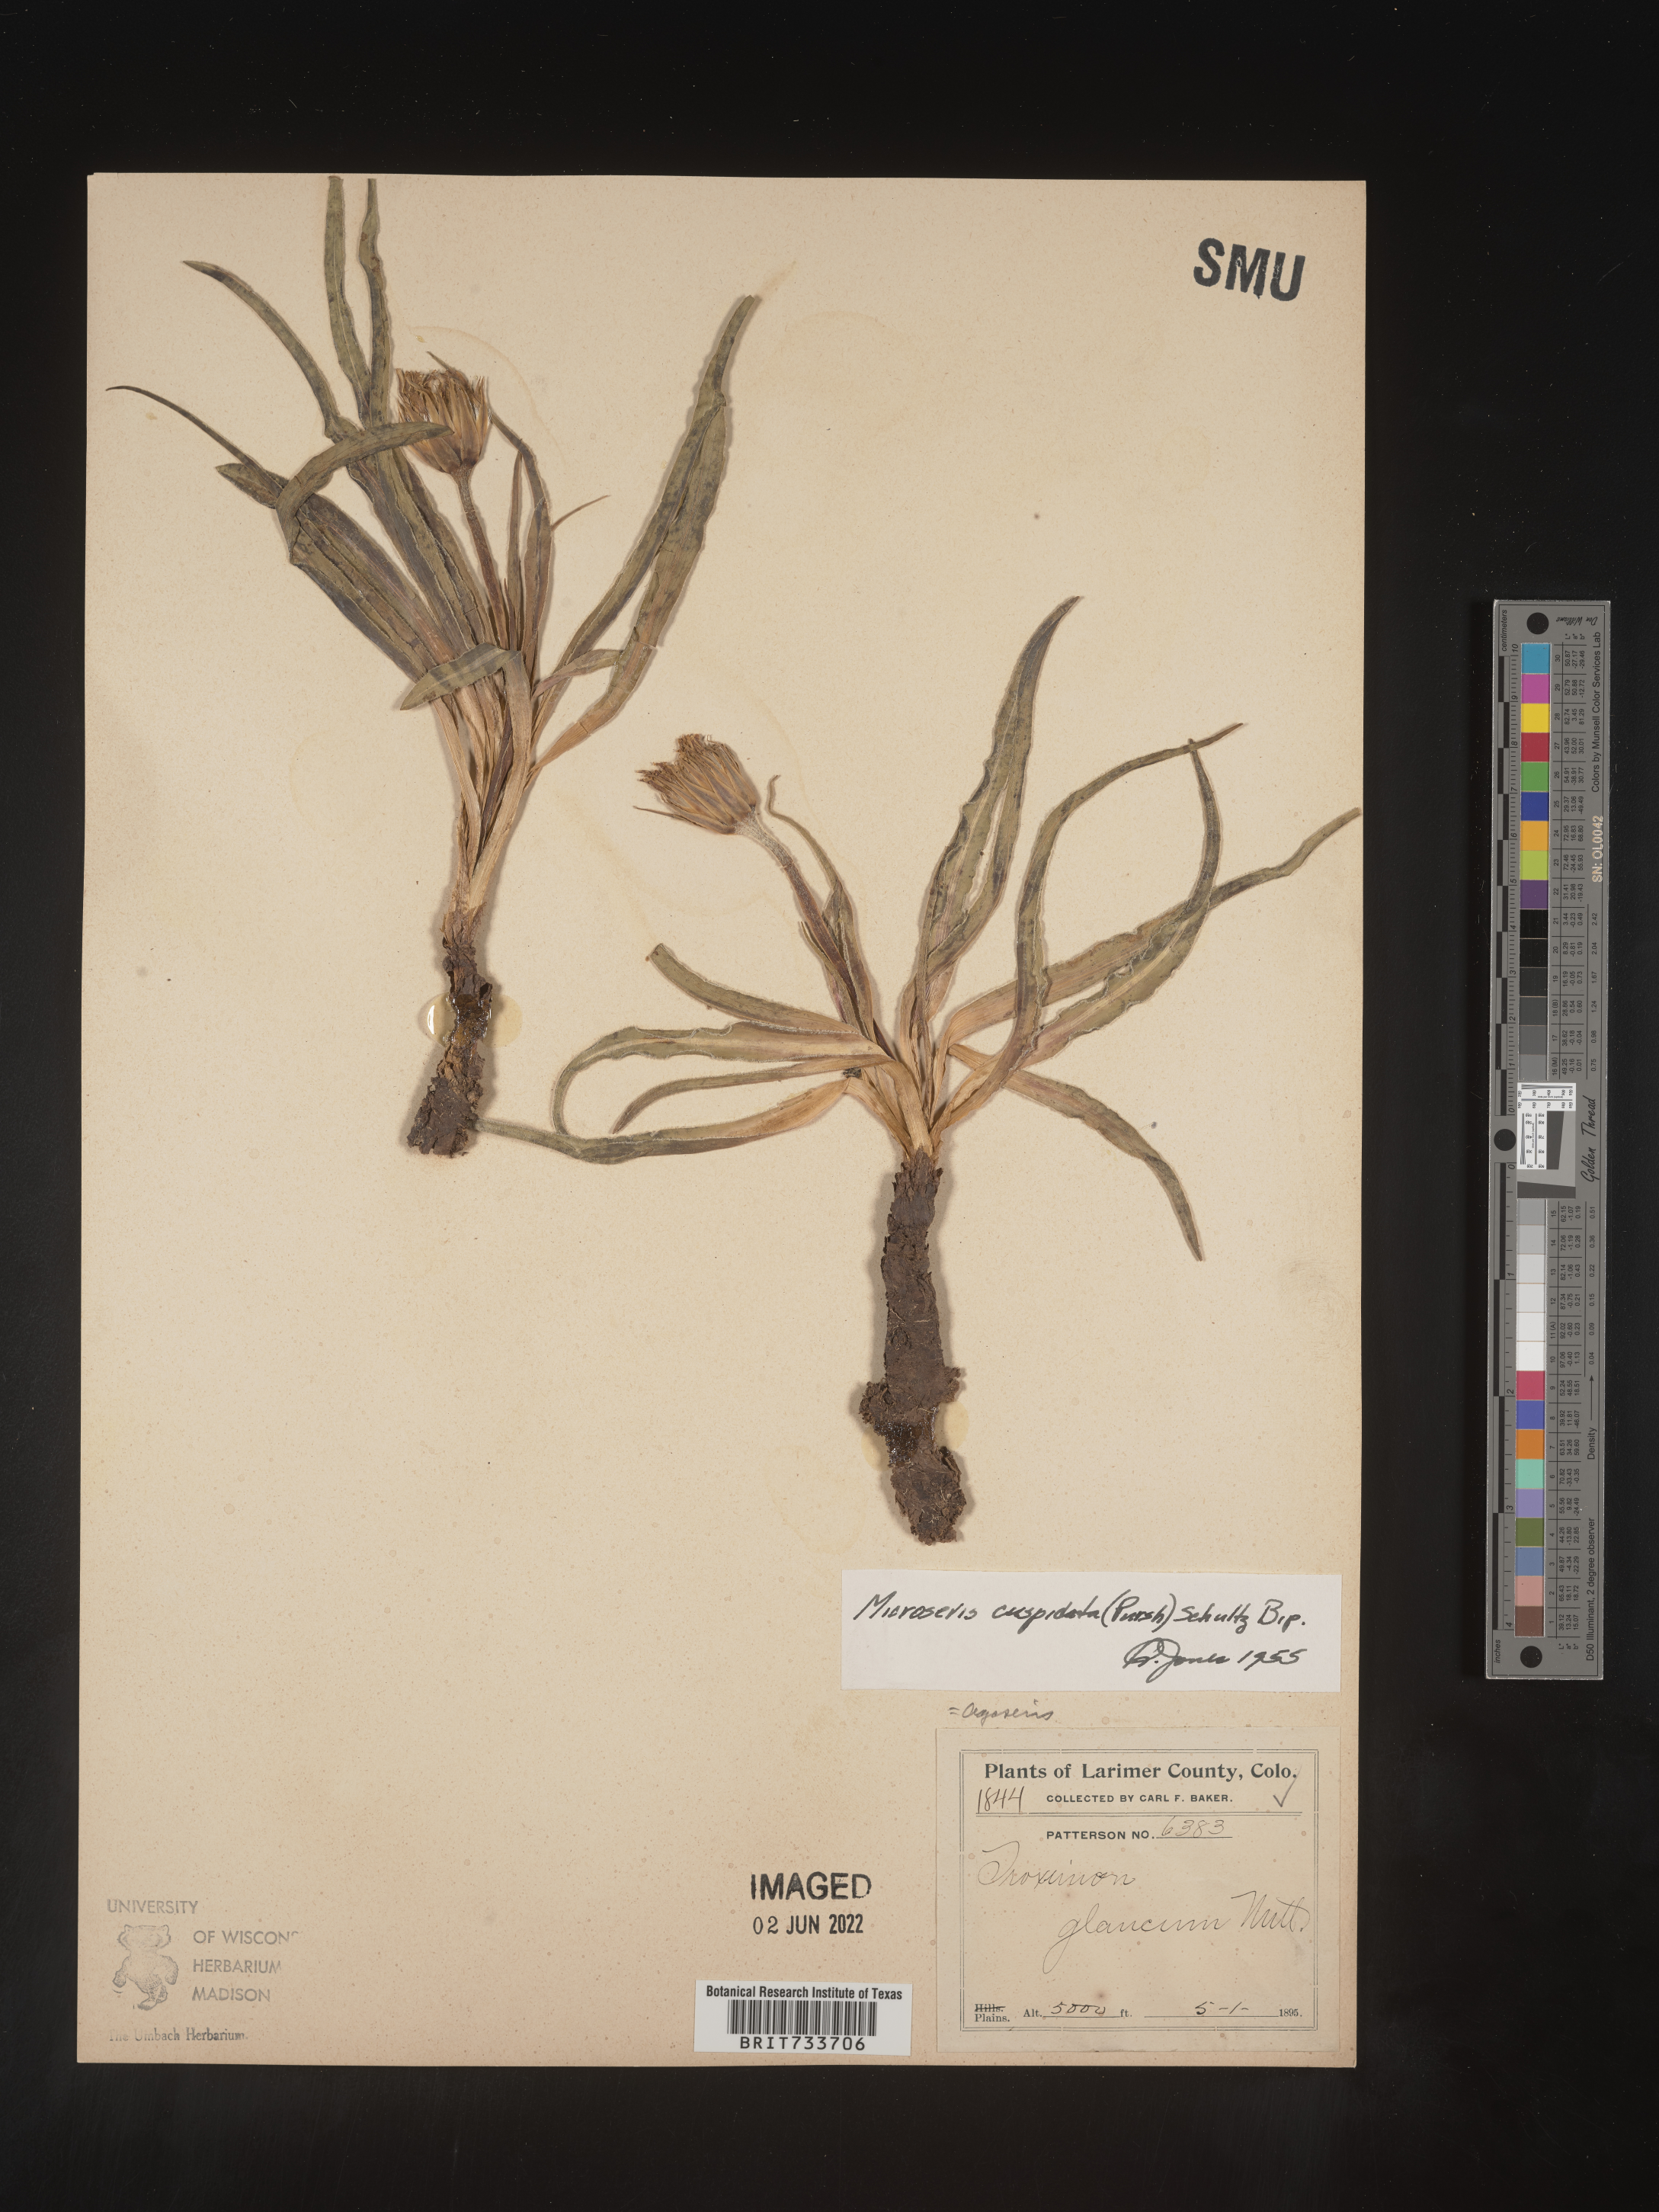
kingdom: Plantae
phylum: Tracheophyta
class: Magnoliopsida
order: Asterales
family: Asteraceae
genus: Microseris
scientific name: Microseris
